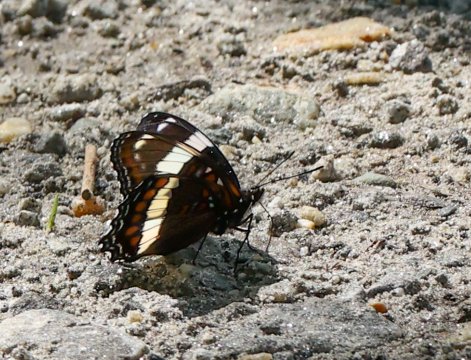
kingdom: Animalia
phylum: Arthropoda
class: Insecta
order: Lepidoptera
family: Nymphalidae
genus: Limenitis
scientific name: Limenitis arthemis
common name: Red-spotted Admiral
